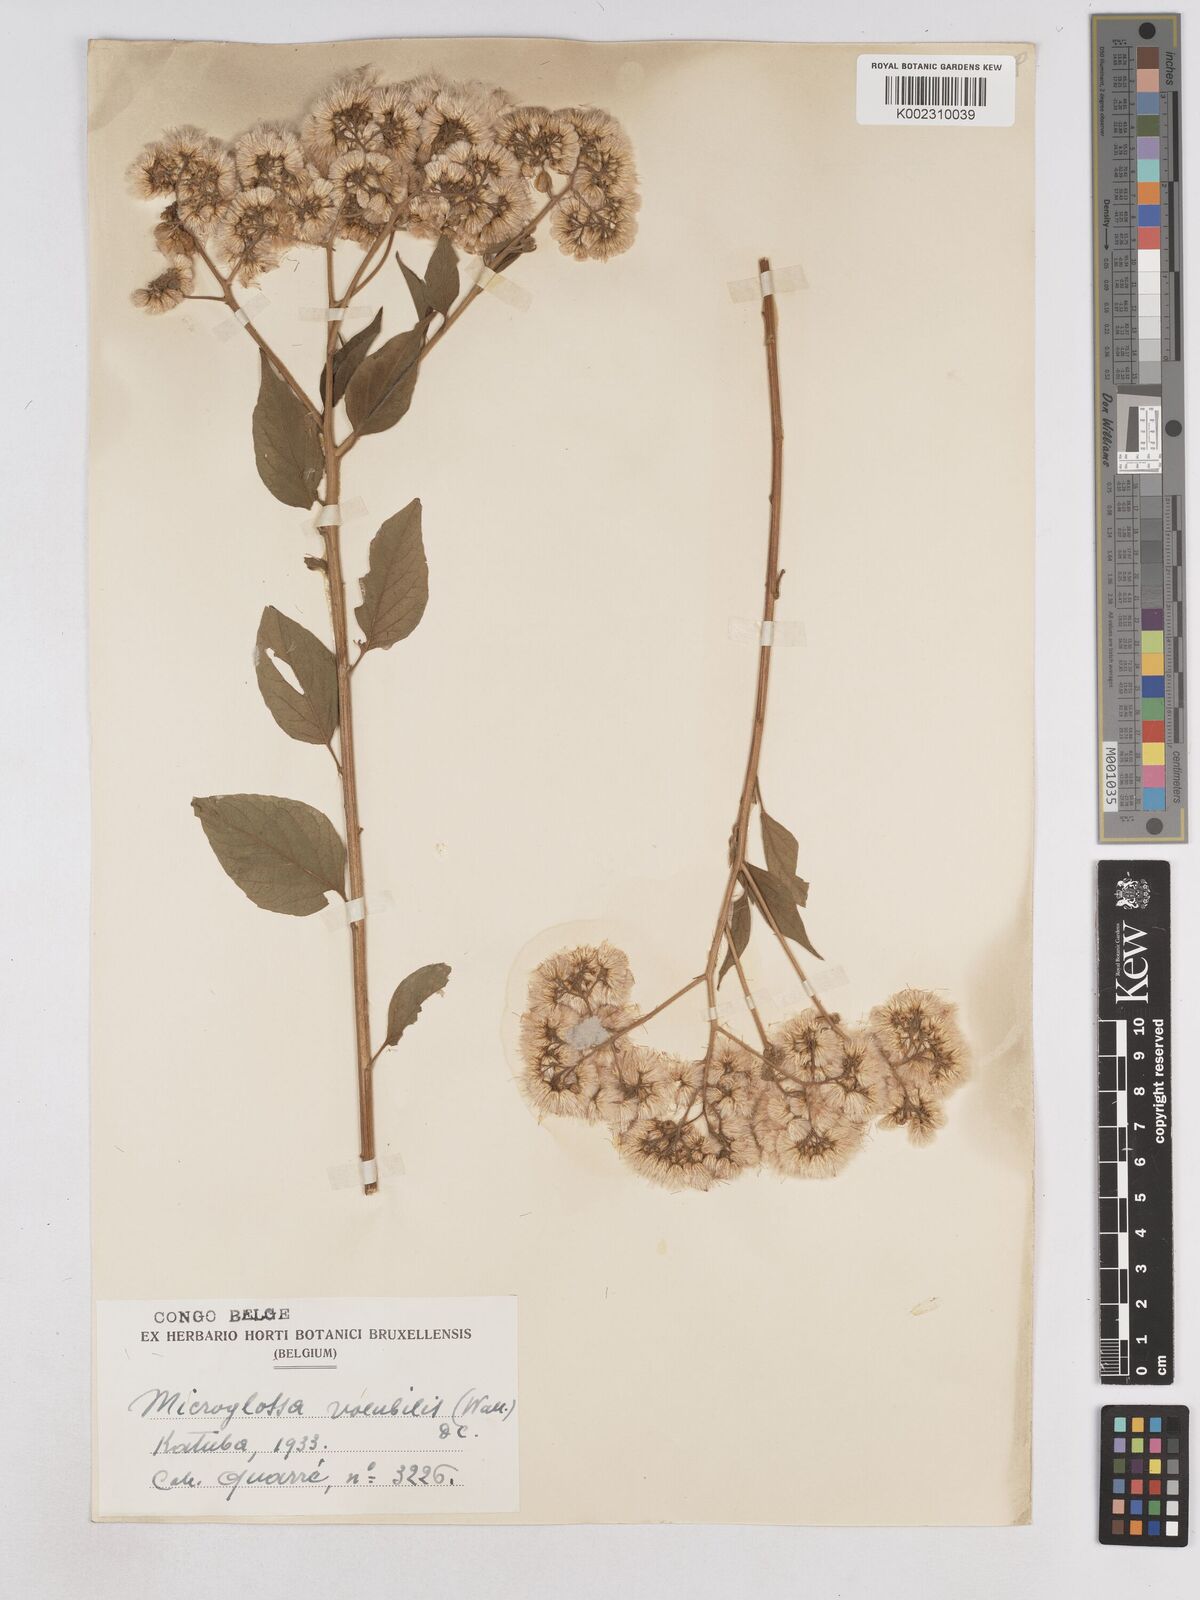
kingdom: Plantae
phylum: Tracheophyta
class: Magnoliopsida
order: Asterales
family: Asteraceae
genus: Microglossa
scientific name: Microglossa pyrifolia
